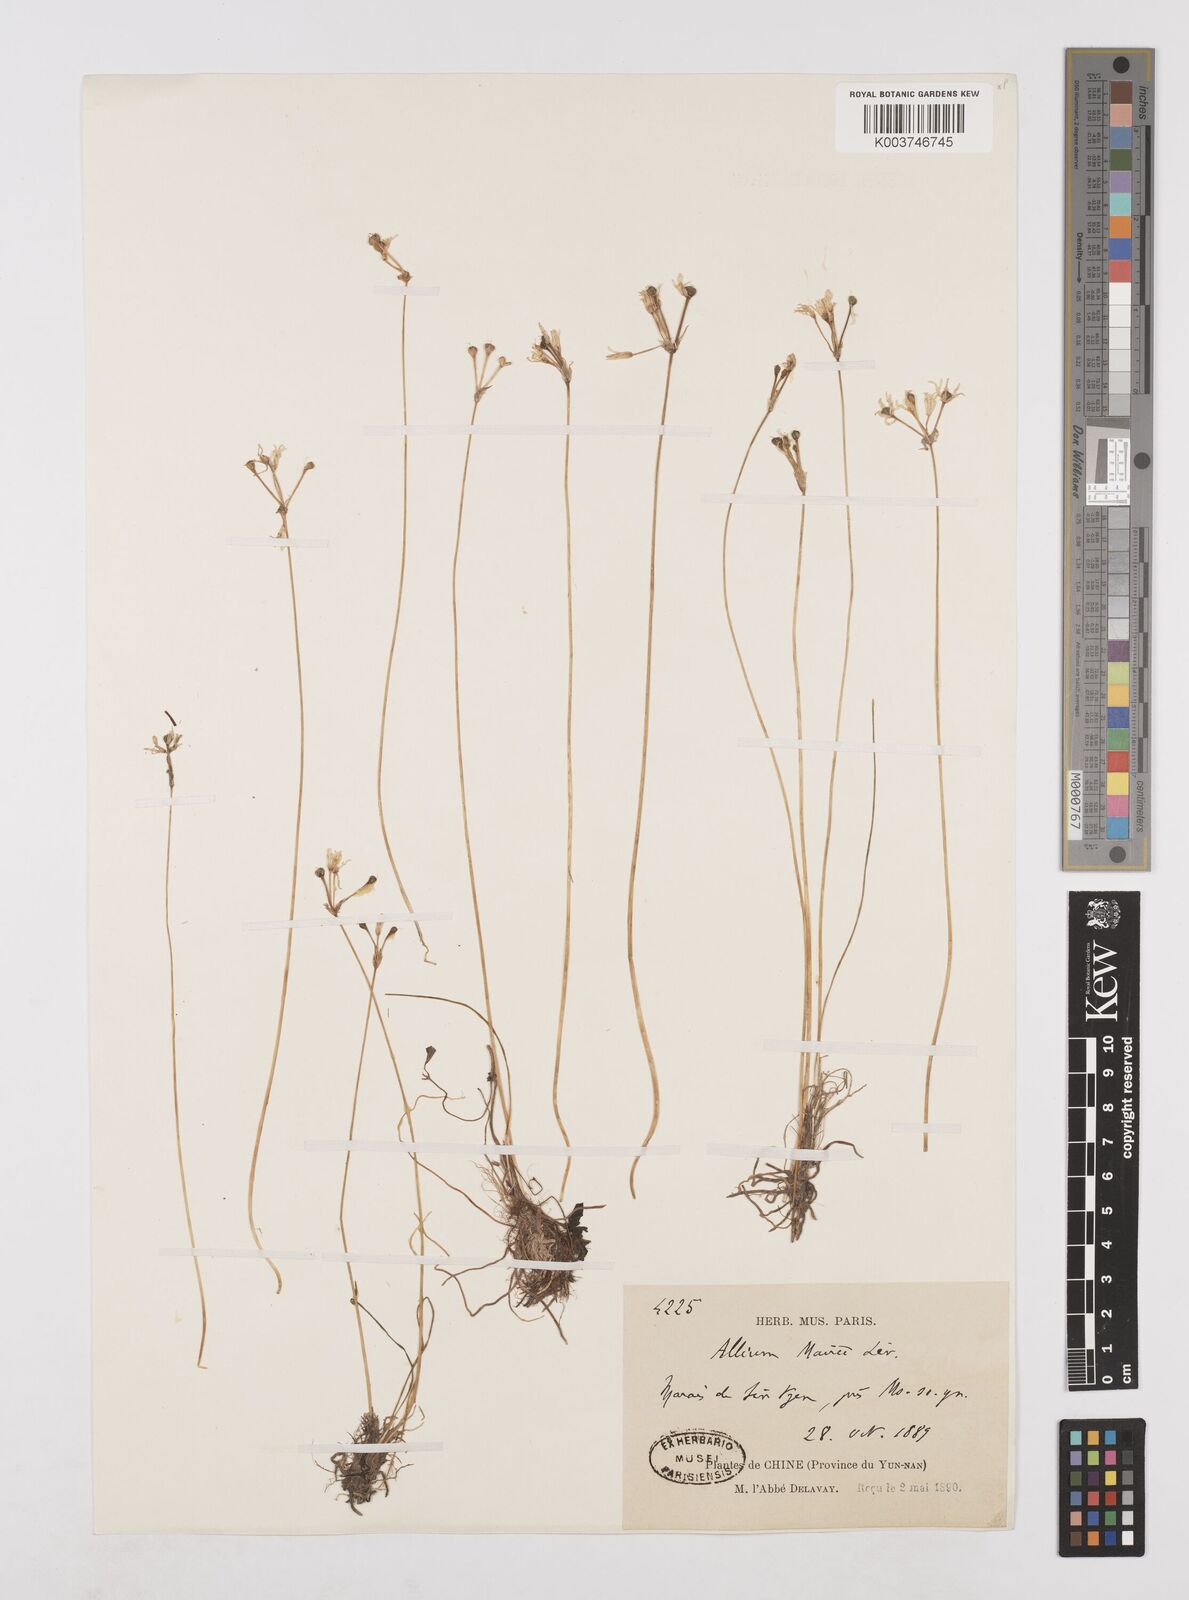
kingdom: Plantae
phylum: Tracheophyta
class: Liliopsida
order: Asparagales
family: Amaryllidaceae
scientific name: Amaryllidaceae
